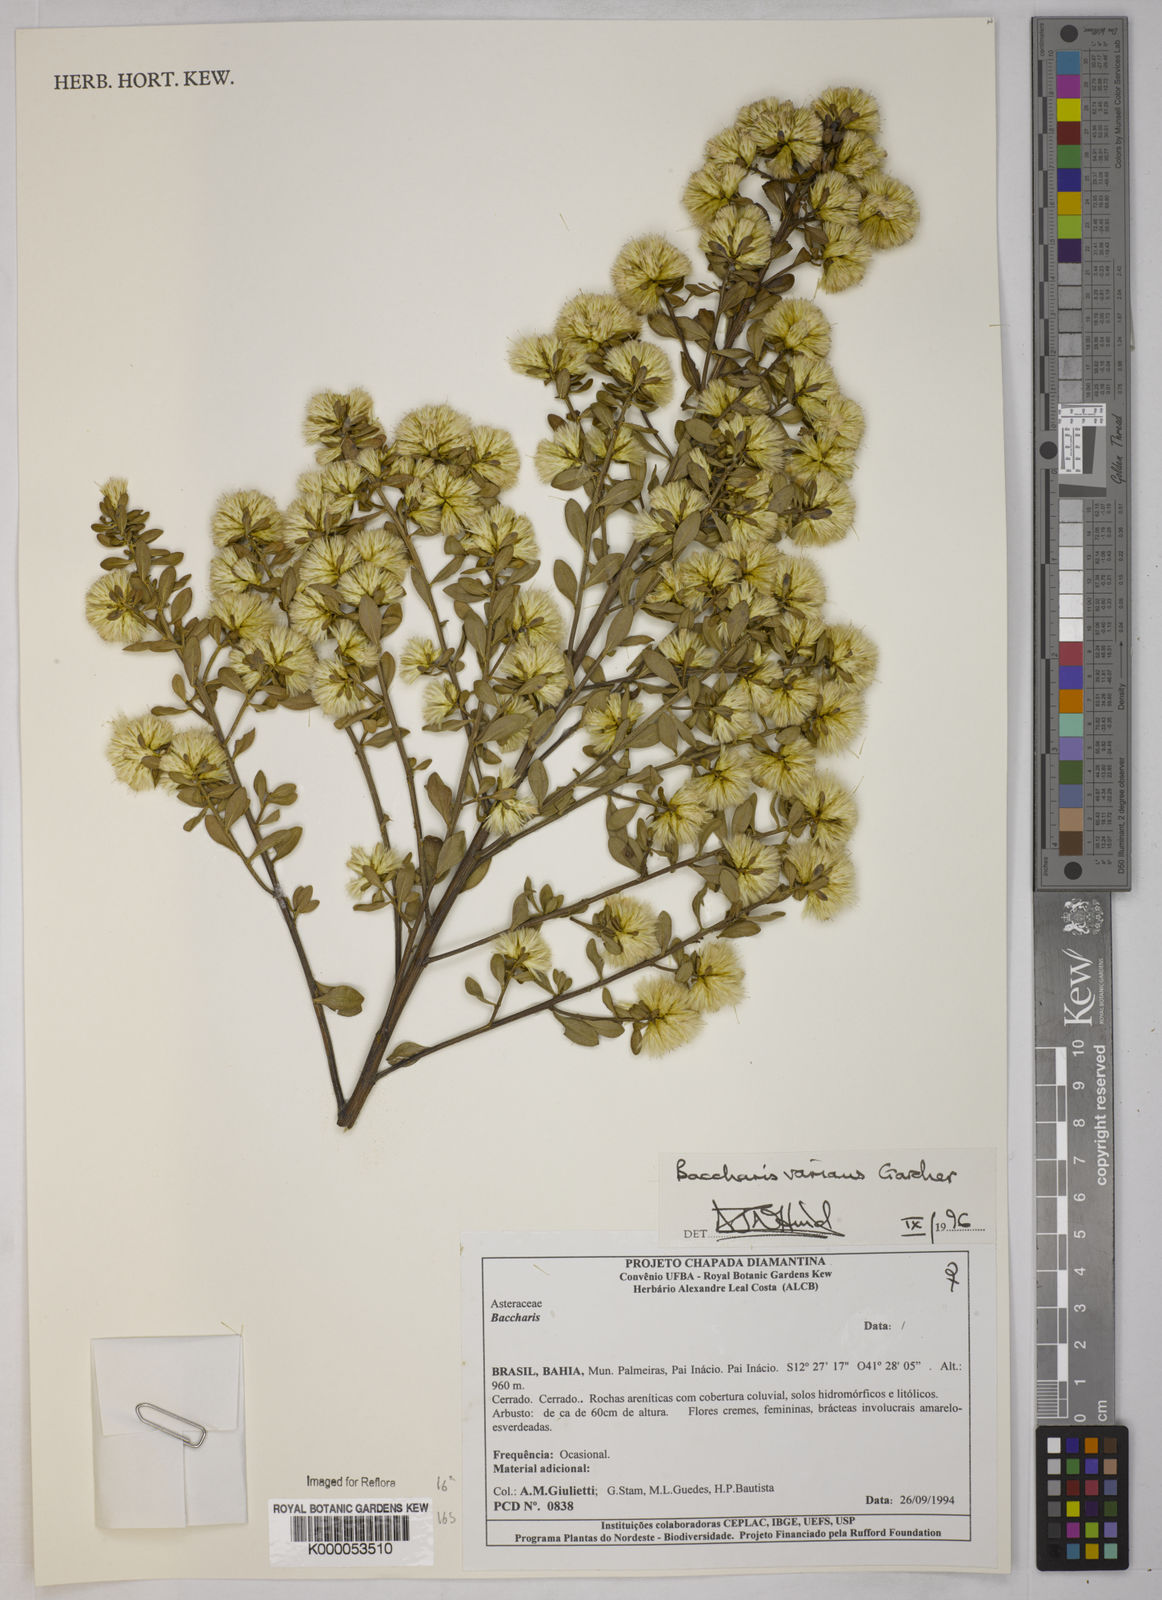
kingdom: Plantae
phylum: Tracheophyta
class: Magnoliopsida
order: Asterales
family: Asteraceae
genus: Baccharis
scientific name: Baccharis varians
